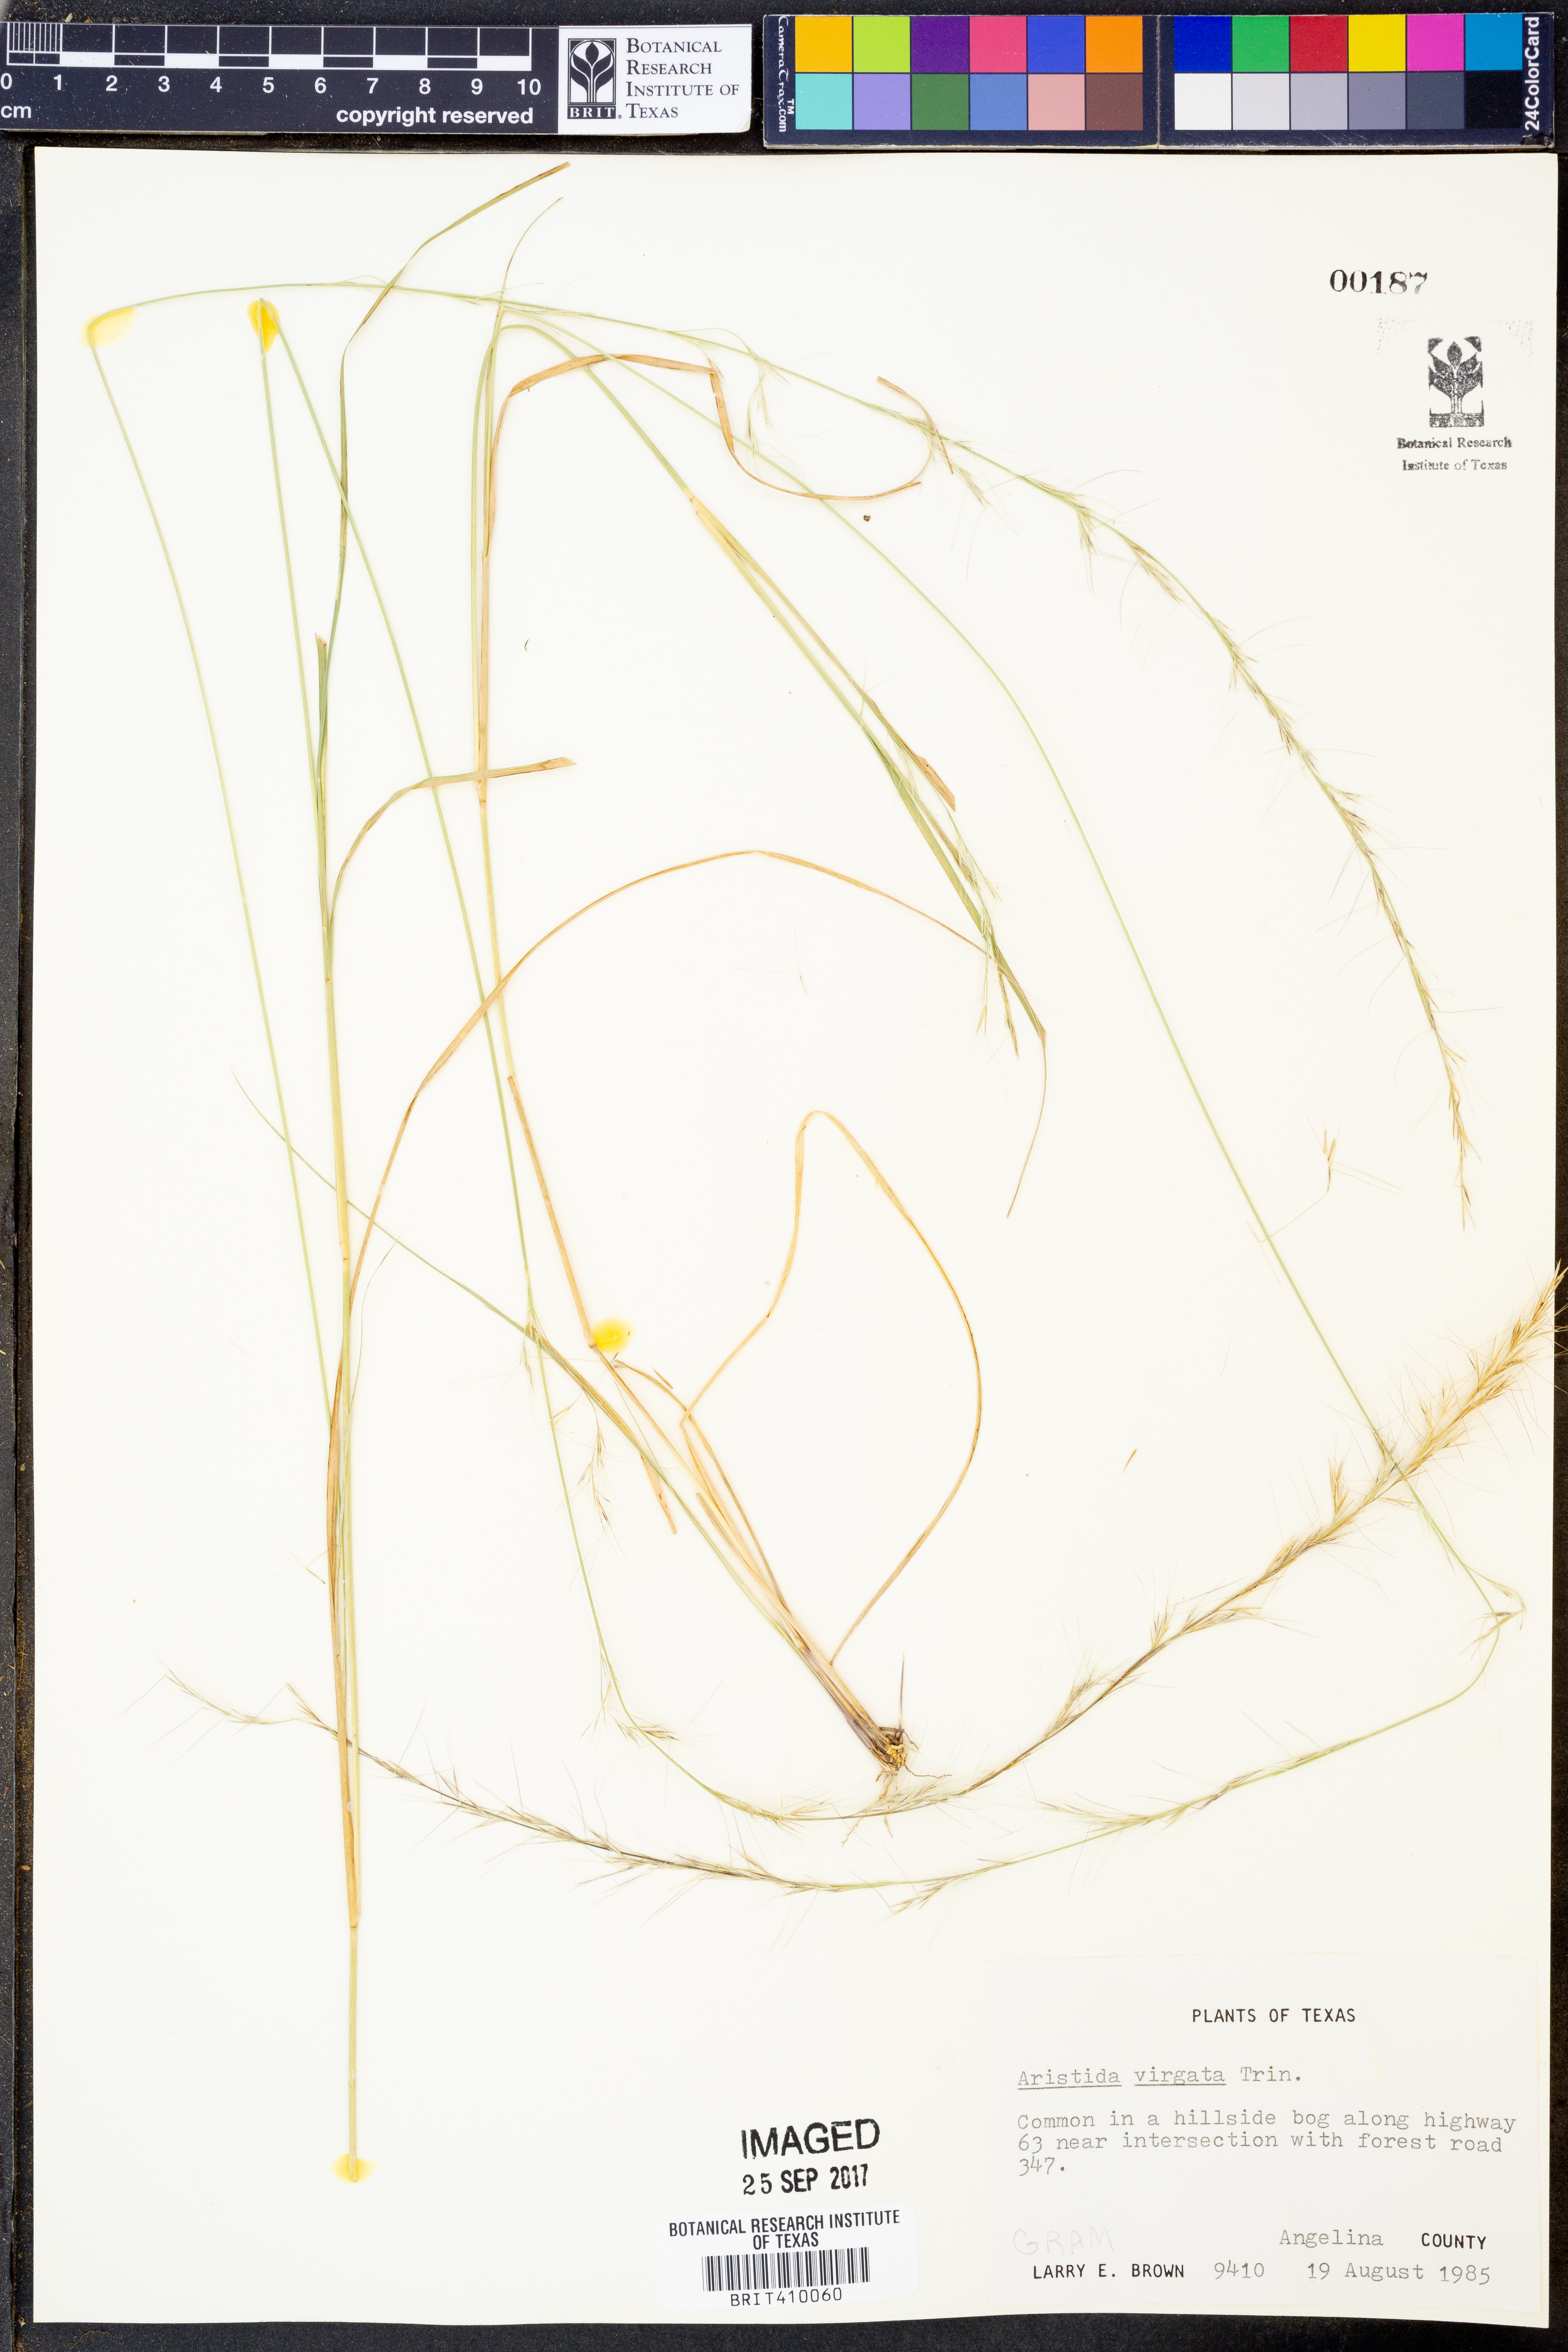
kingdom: Plantae
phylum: Tracheophyta
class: Liliopsida
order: Poales
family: Poaceae
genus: Aristida
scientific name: Aristida virgata
